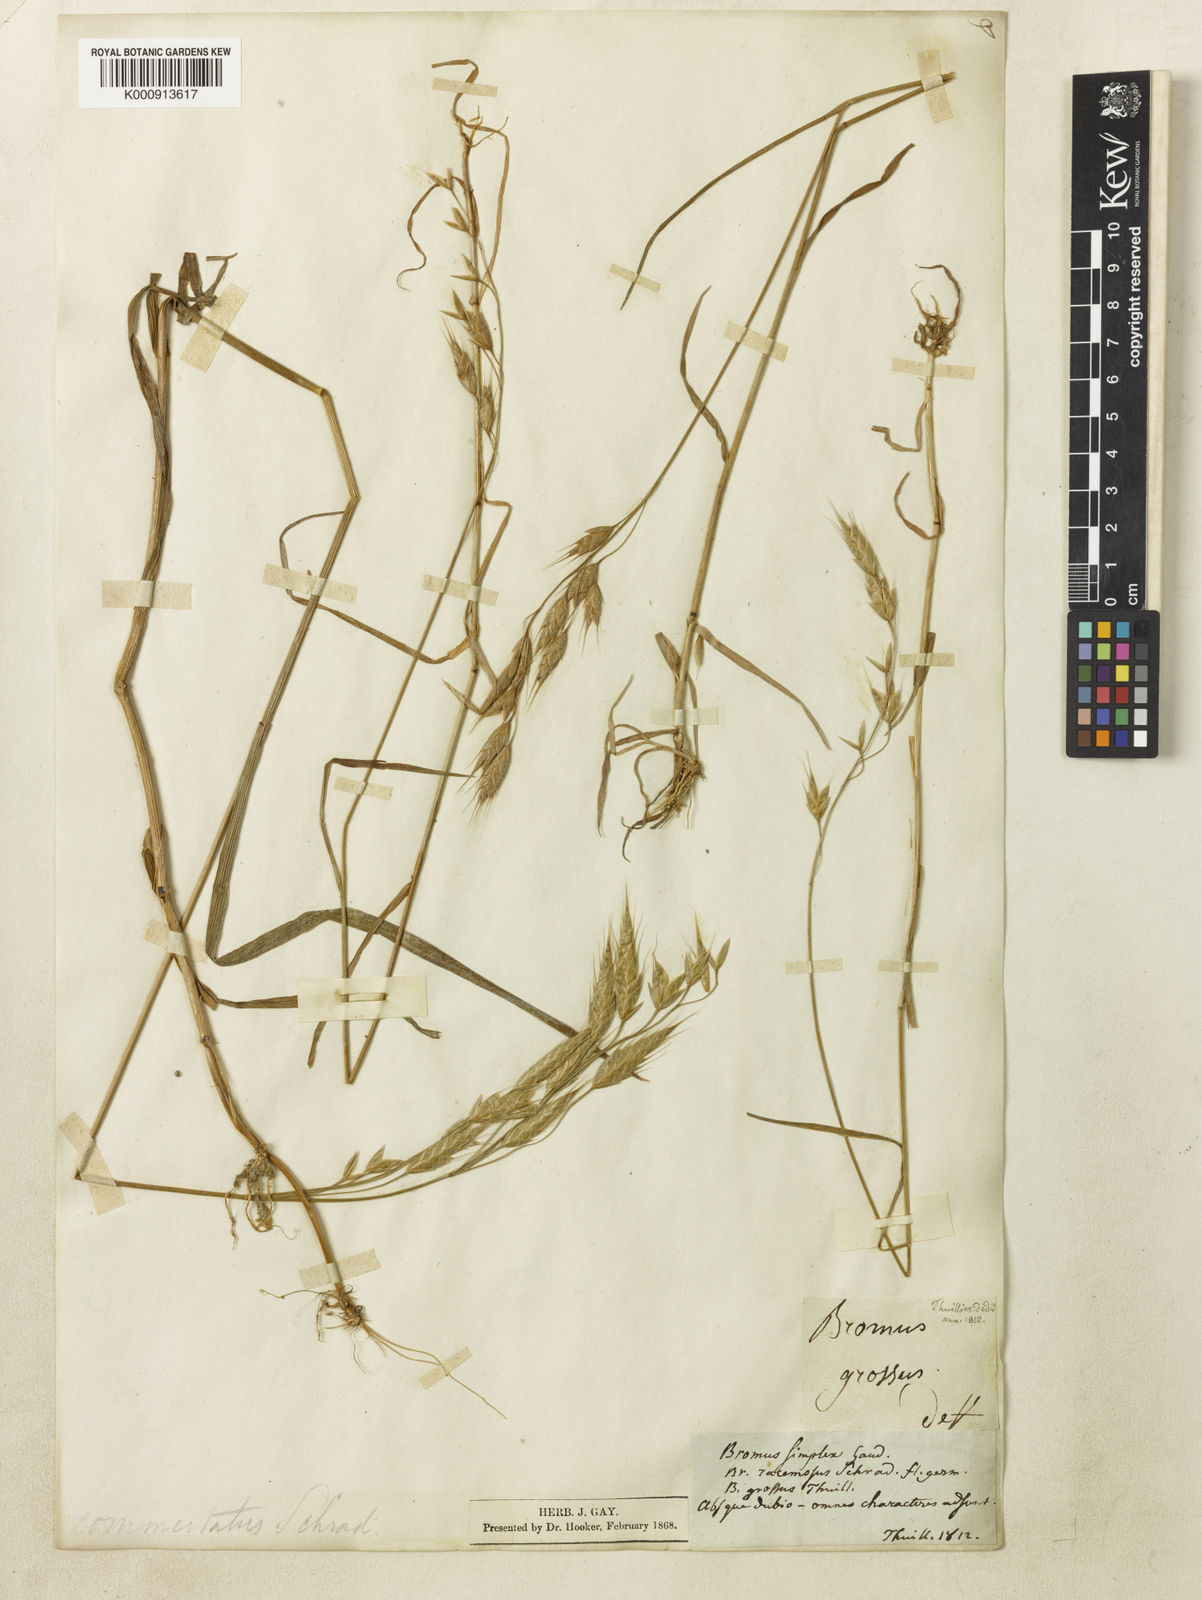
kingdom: Plantae
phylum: Tracheophyta
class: Liliopsida
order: Poales
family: Poaceae
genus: Bromus
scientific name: Bromus commutatus
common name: Meadow brome
